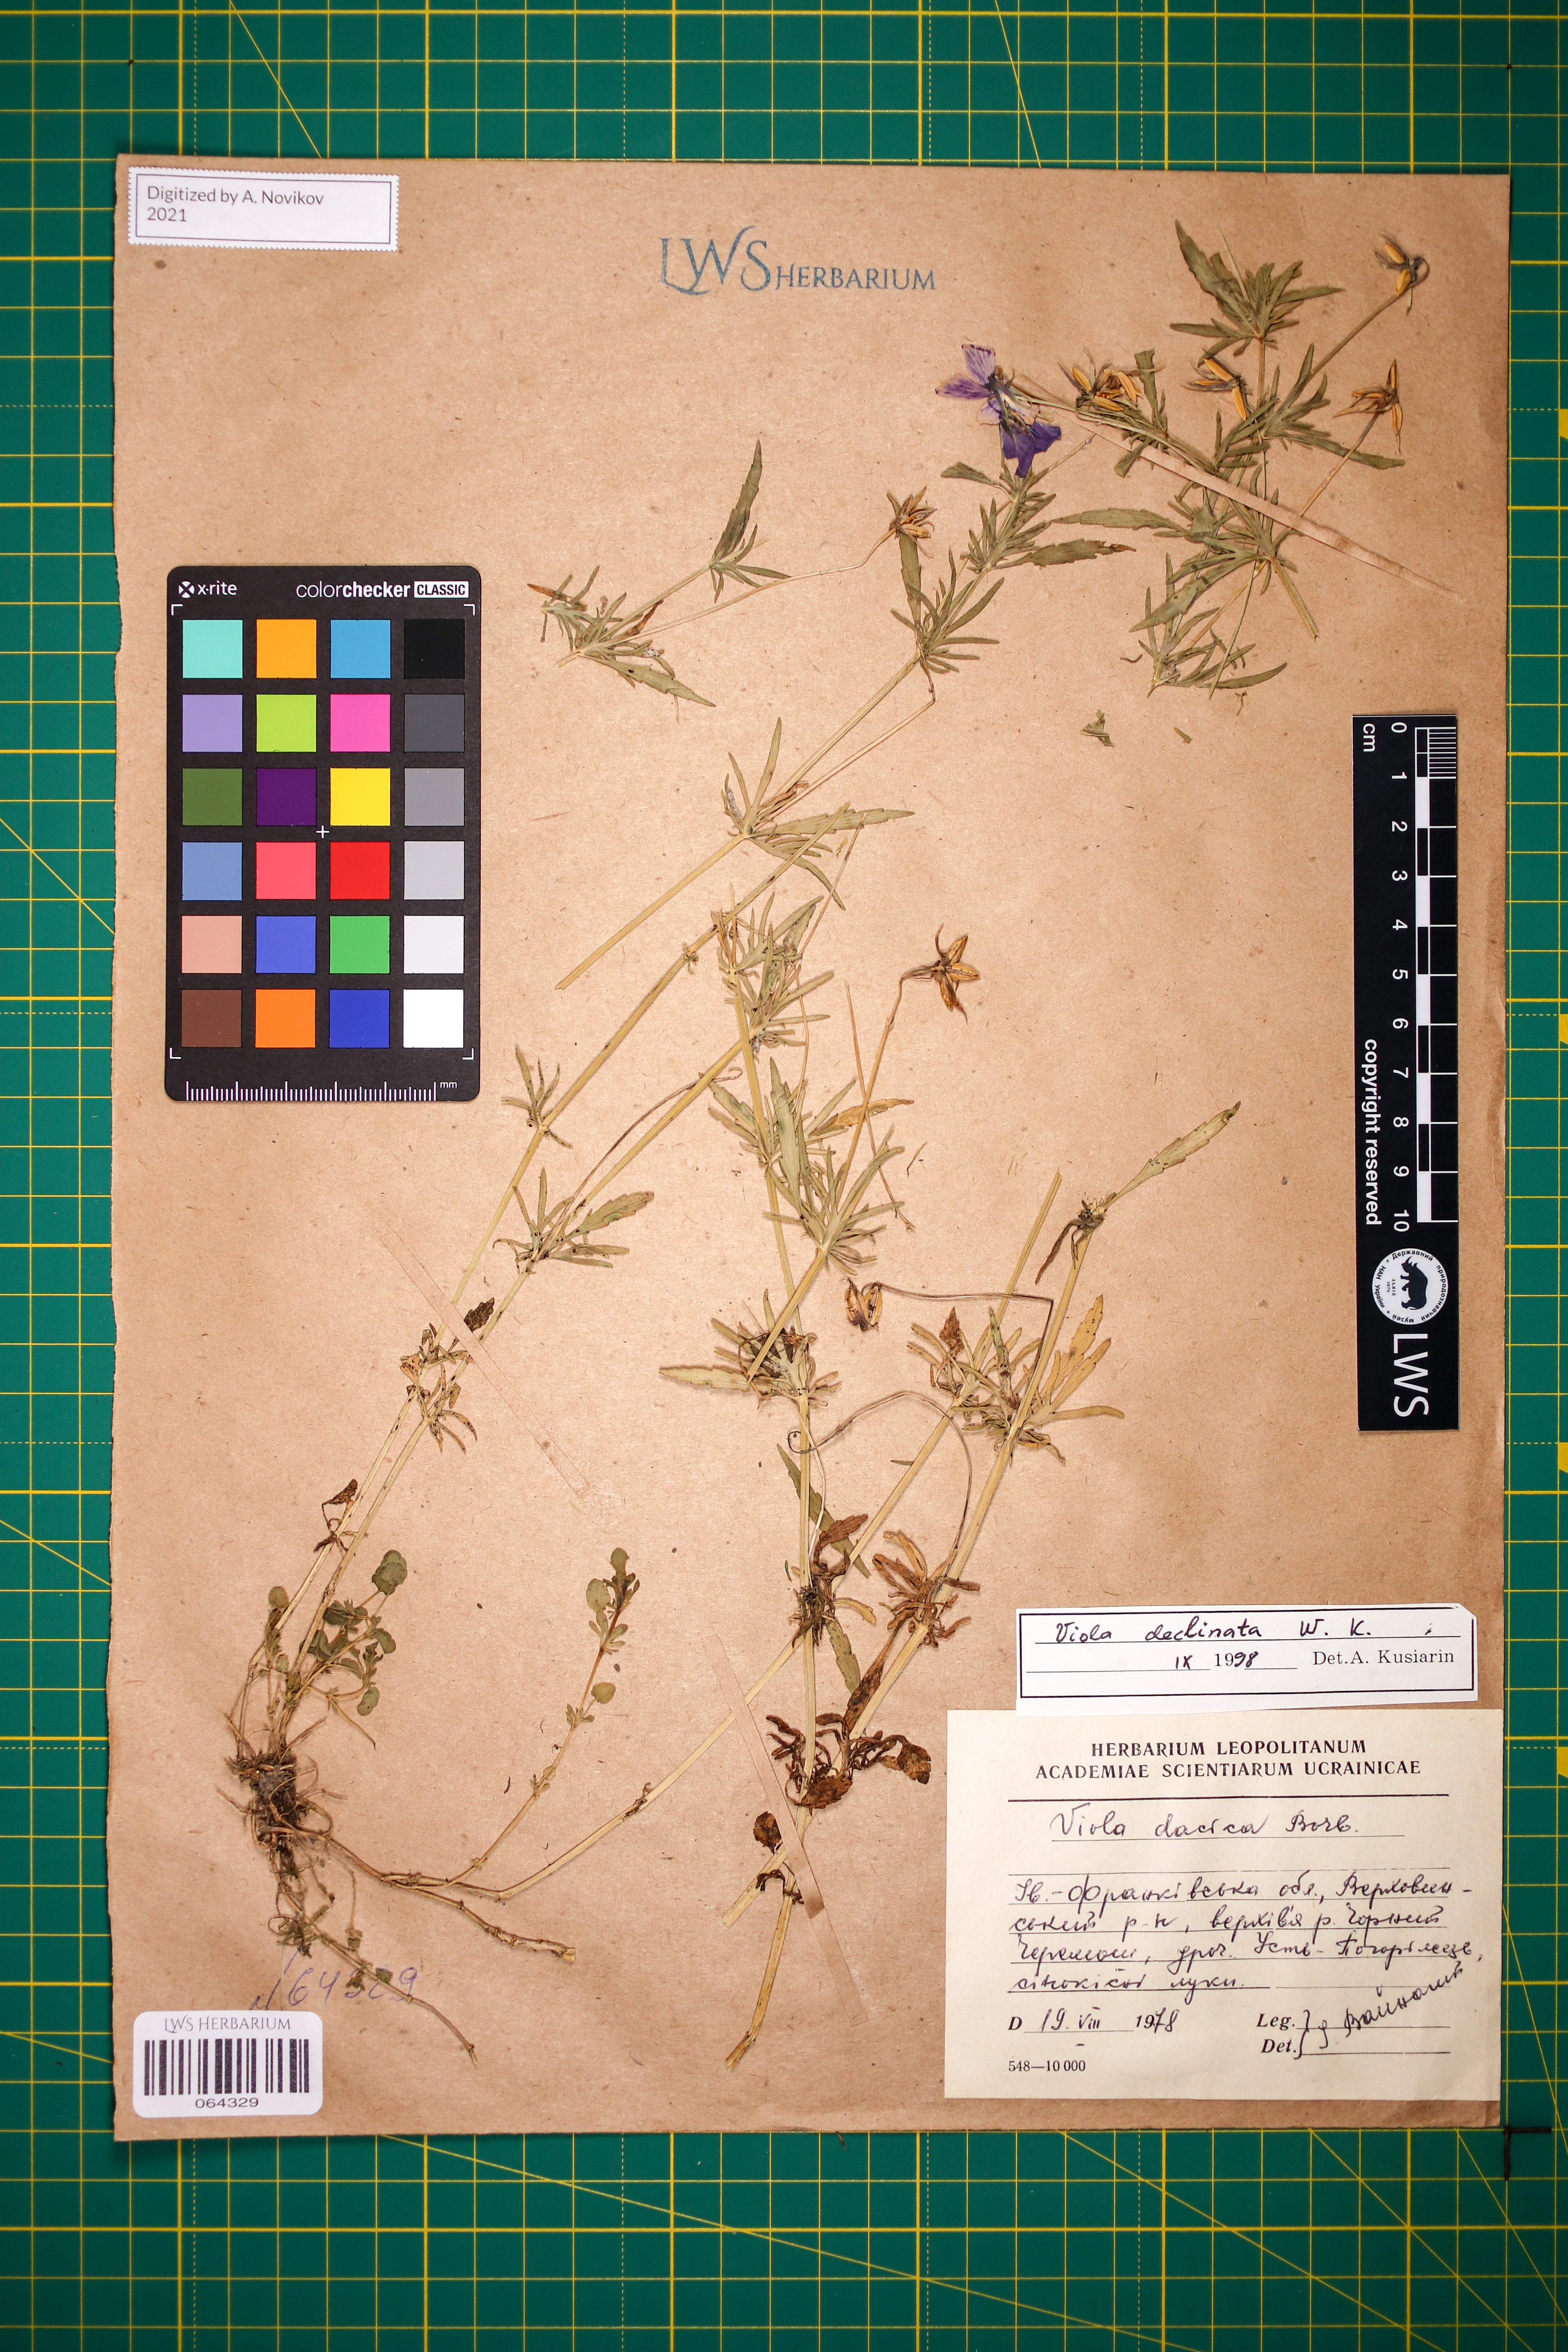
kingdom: Plantae
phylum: Tracheophyta
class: Magnoliopsida
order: Malpighiales
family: Violaceae
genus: Viola
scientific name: Viola declinata
